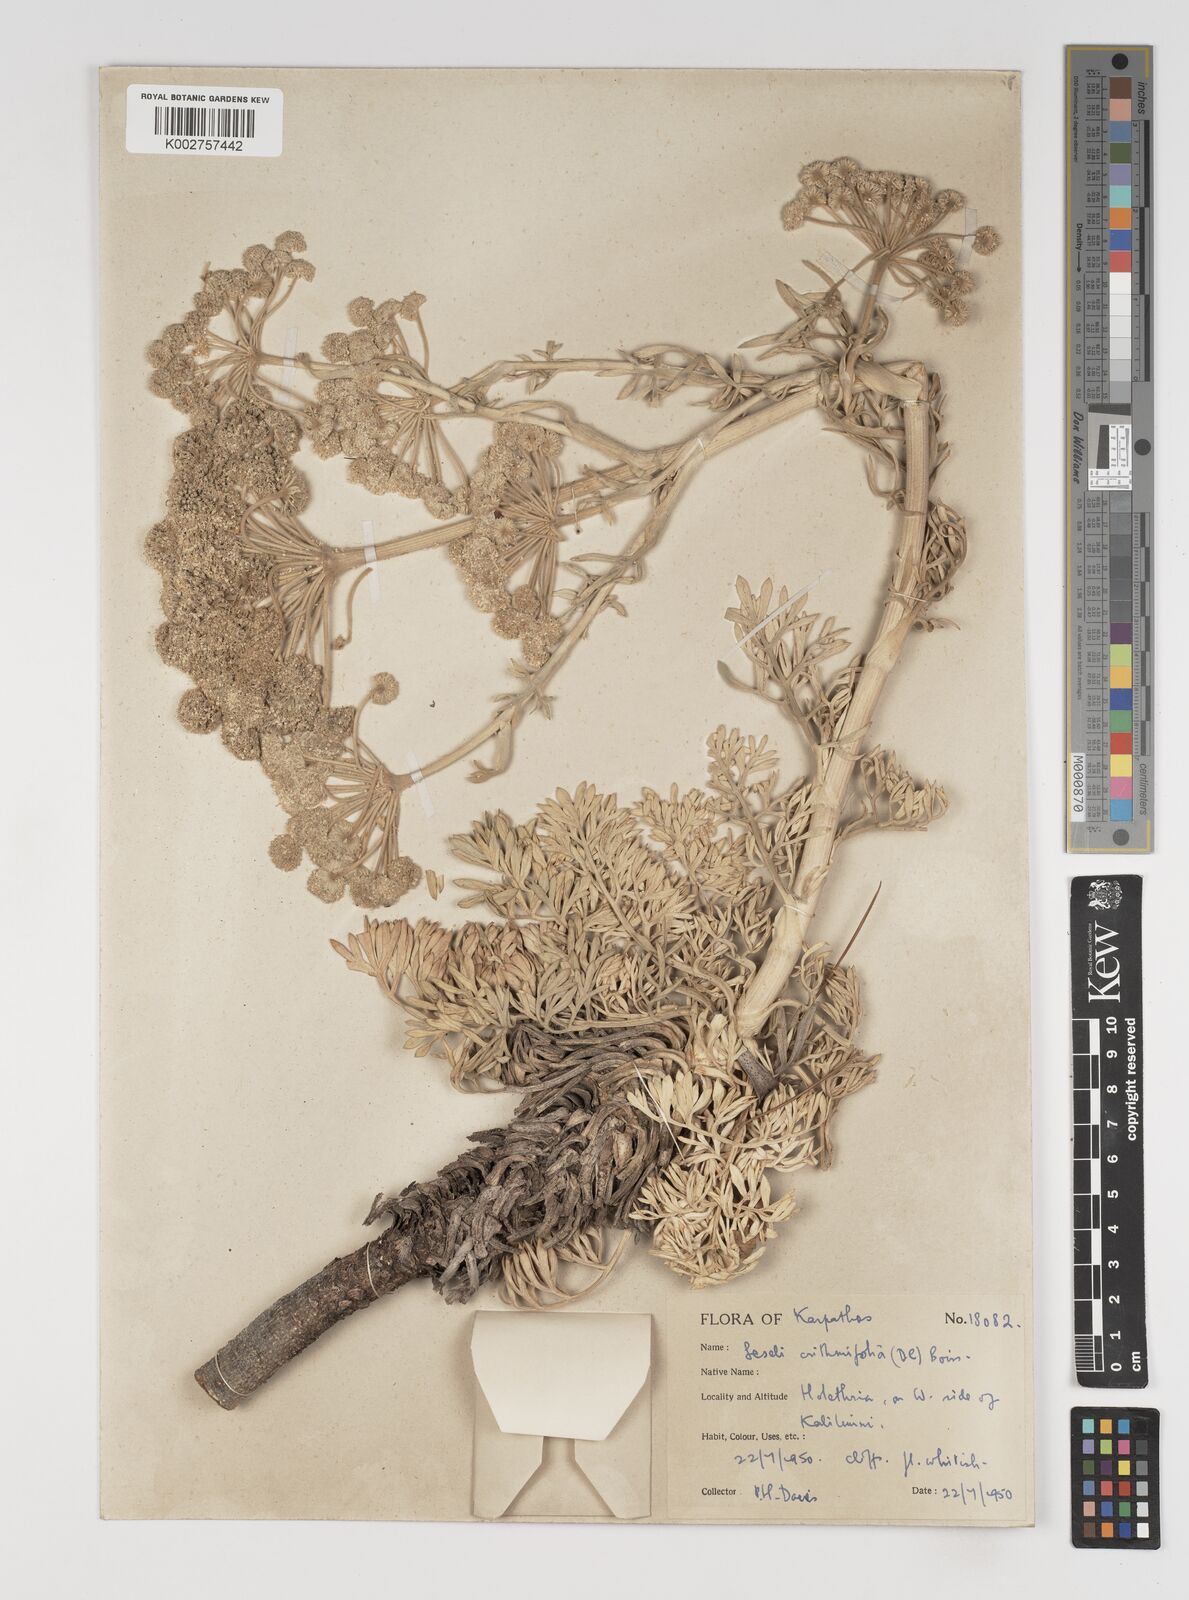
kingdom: Plantae
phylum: Tracheophyta
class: Magnoliopsida
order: Apiales
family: Apiaceae
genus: Seseli
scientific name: Seseli crithmifolium
